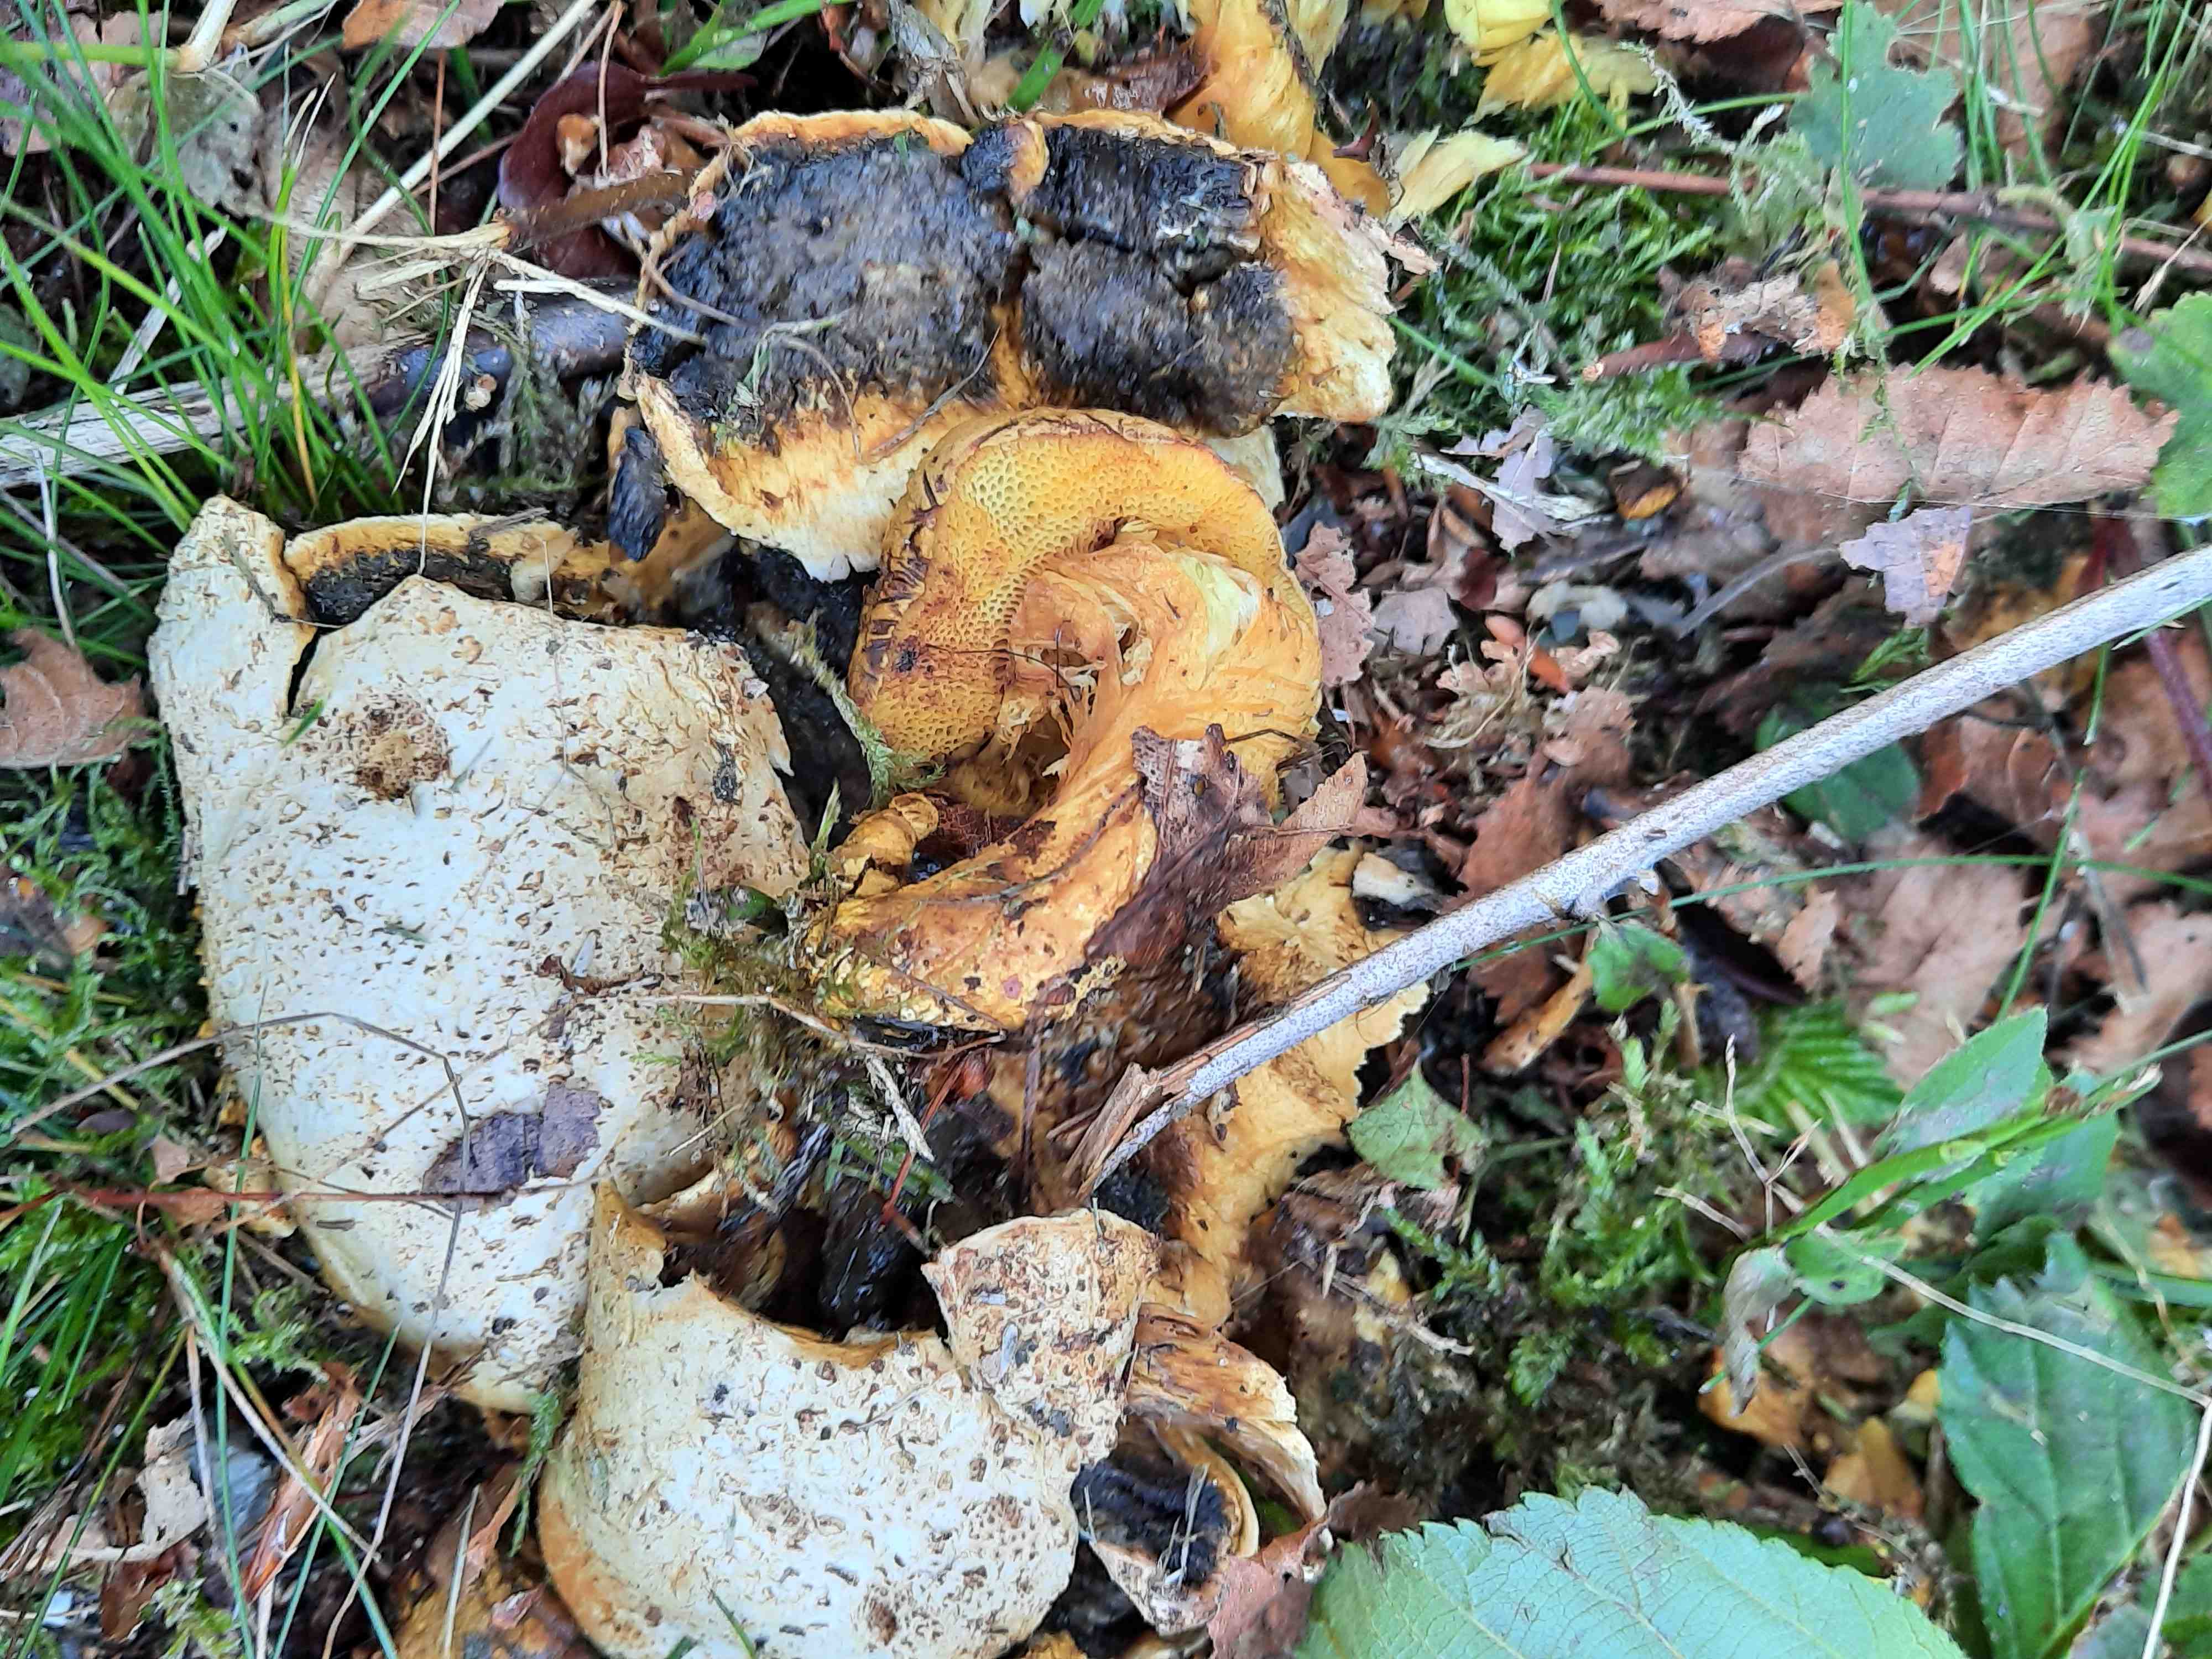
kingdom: Fungi
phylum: Basidiomycota
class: Agaricomycetes
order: Boletales
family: Boletaceae
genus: Pseudoboletus
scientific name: Pseudoboletus parasiticus
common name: snyltende rørhat
